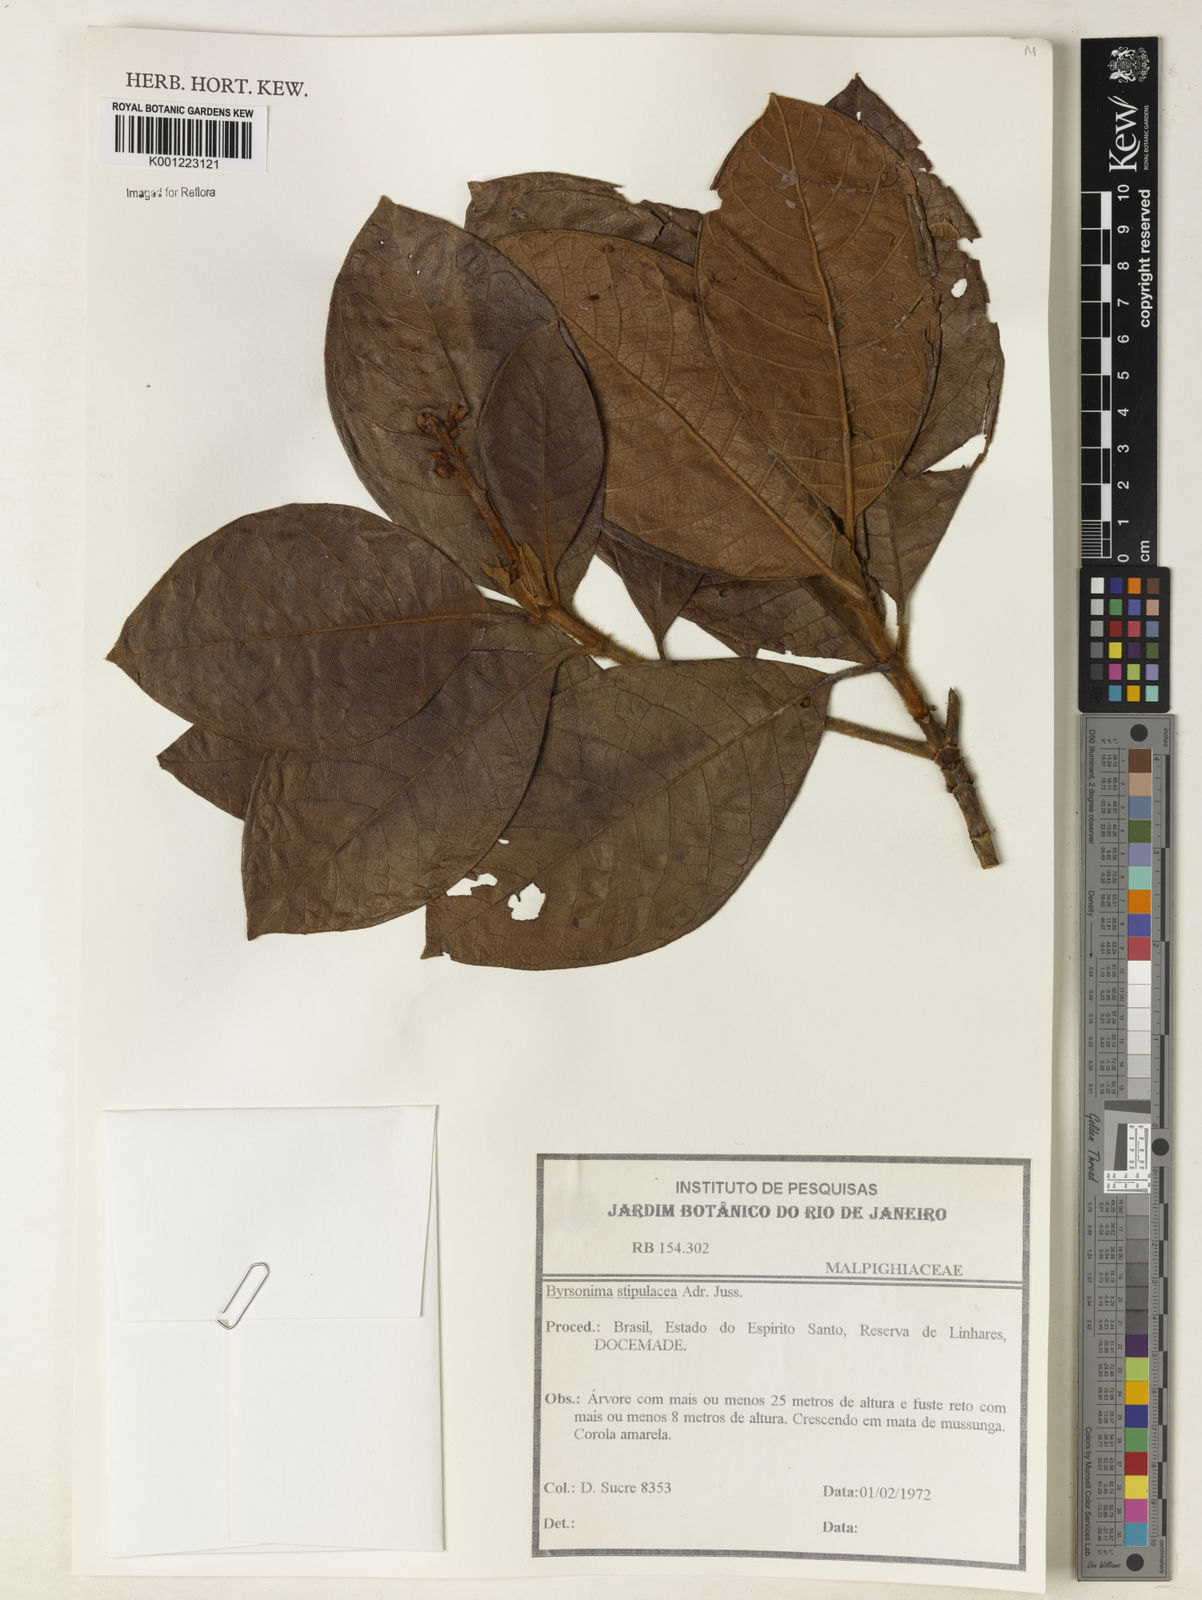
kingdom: Plantae
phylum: Tracheophyta
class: Magnoliopsida
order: Malpighiales
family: Malpighiaceae
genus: Byrsonima
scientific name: Byrsonima stipulacea
